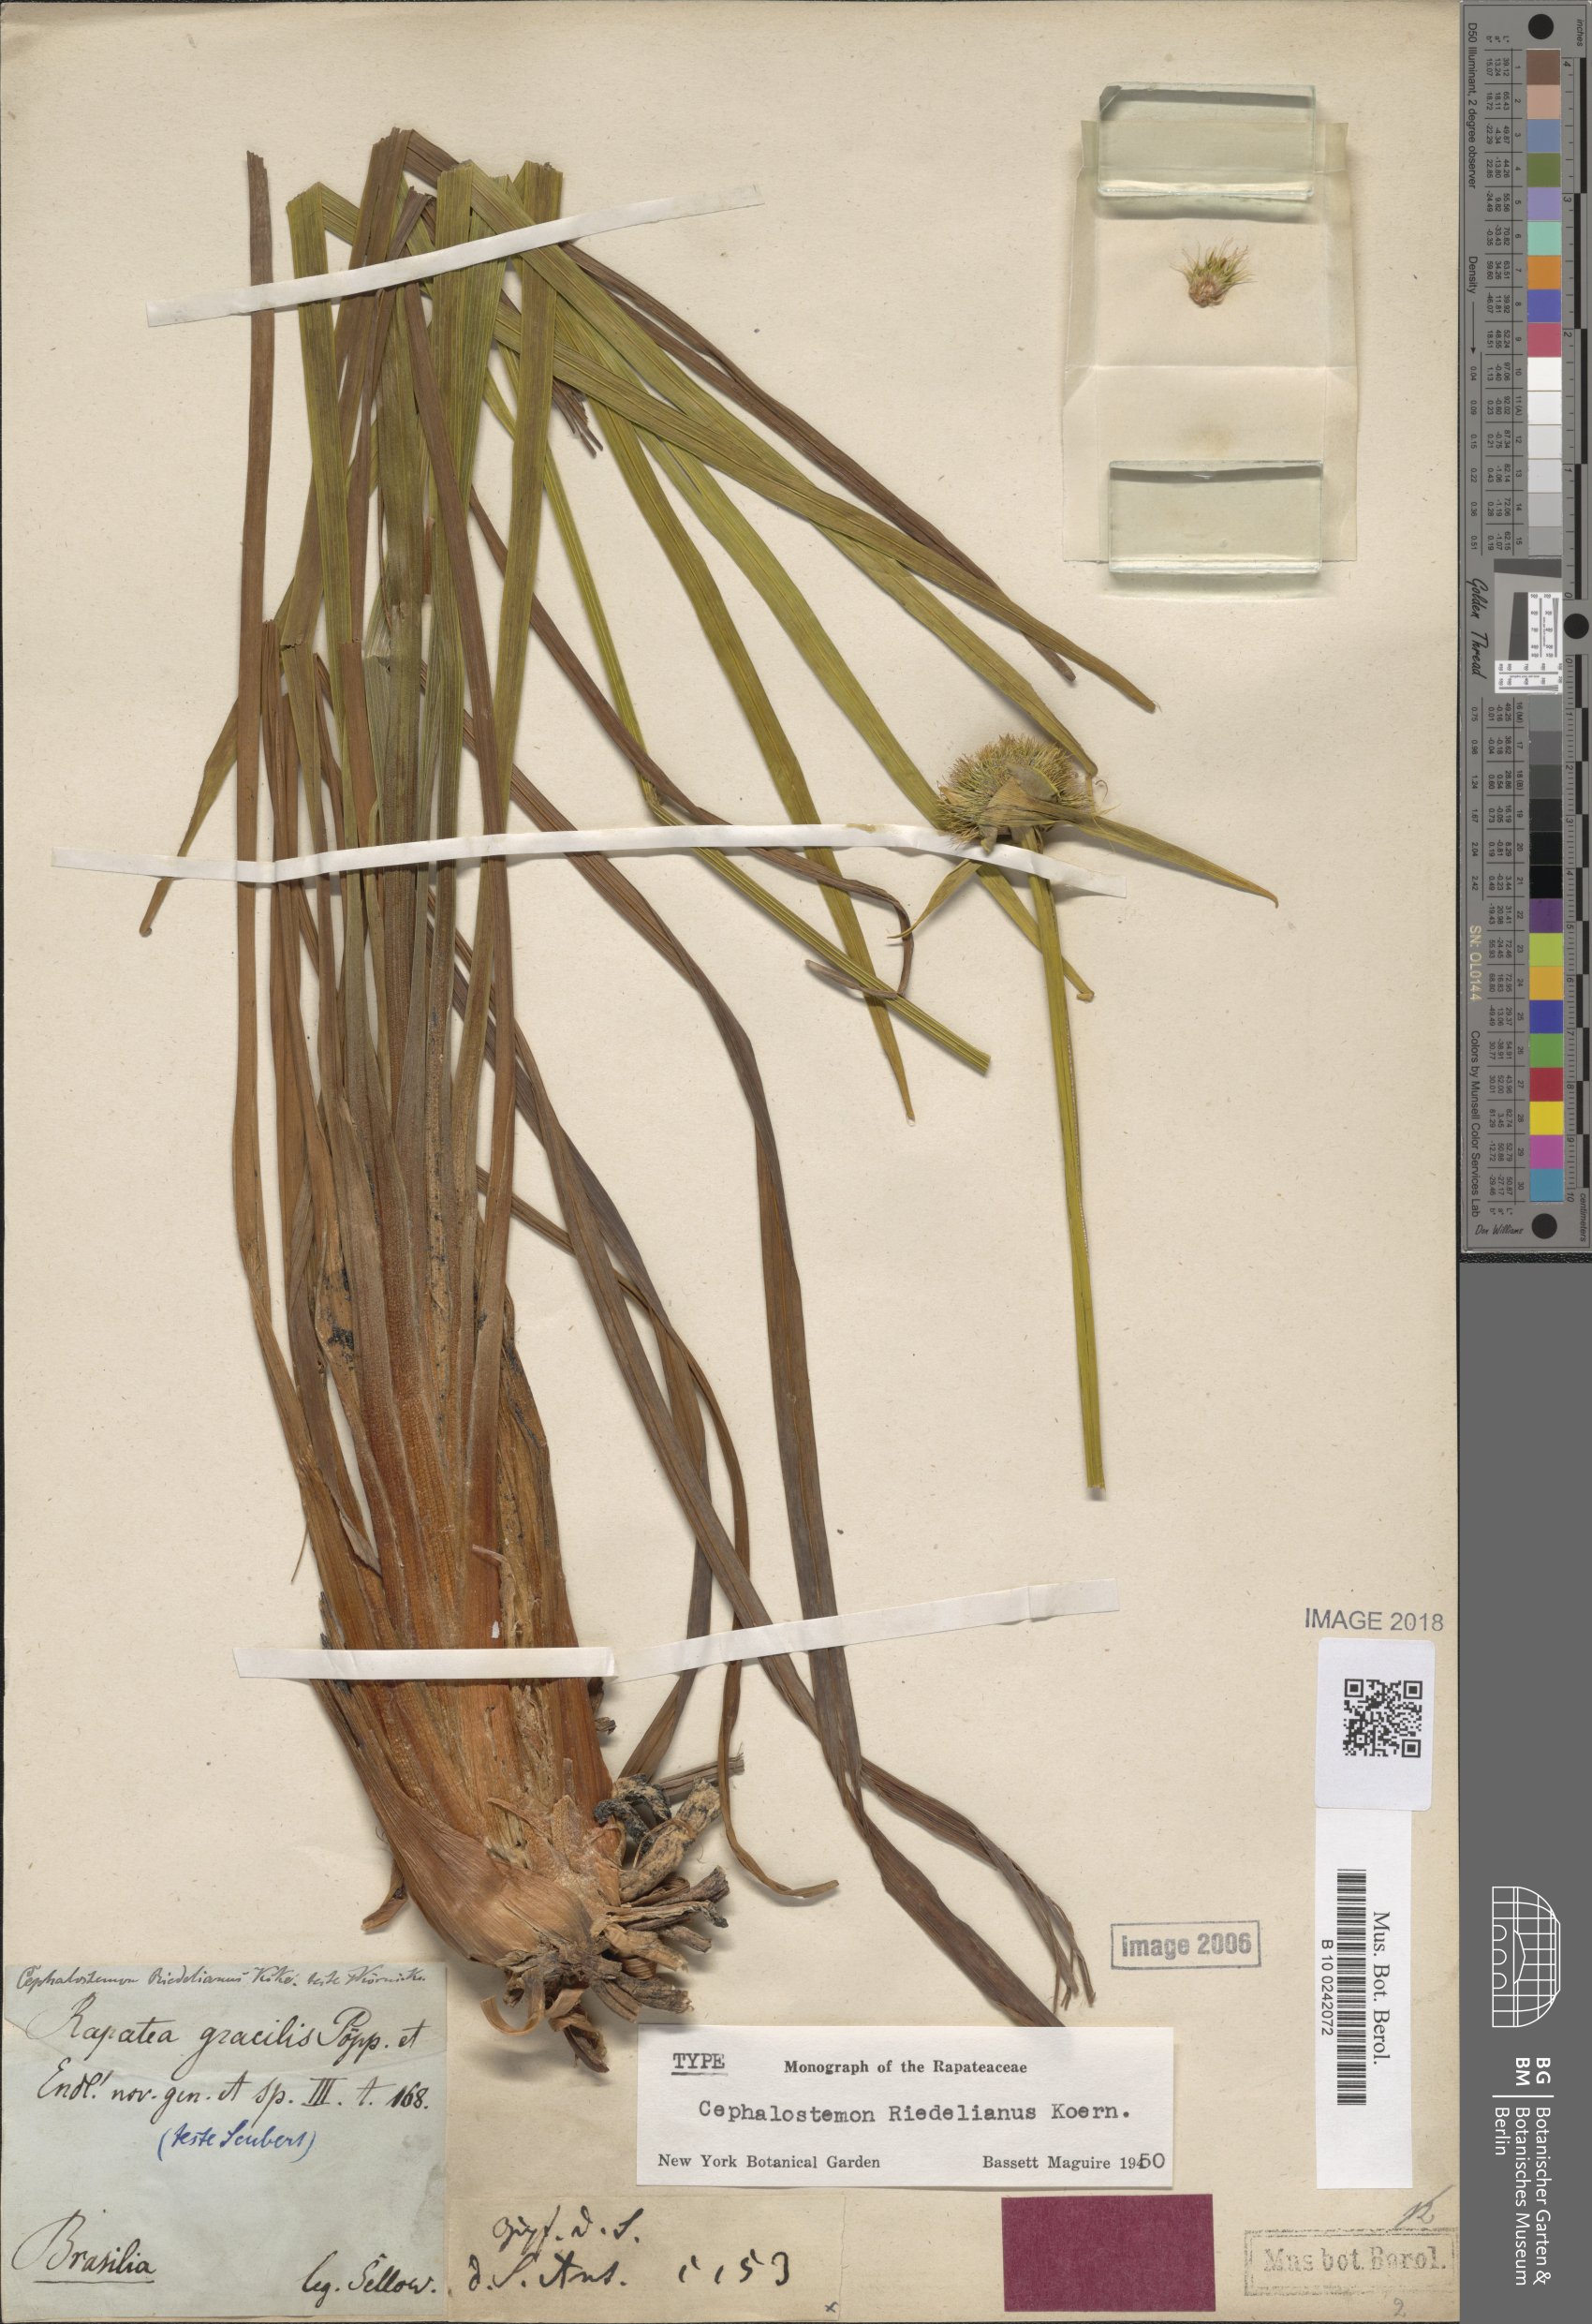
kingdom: Plantae
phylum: Tracheophyta
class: Liliopsida
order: Poales
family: Rapateaceae
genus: Cephalostemon
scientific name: Cephalostemon riedelianus
